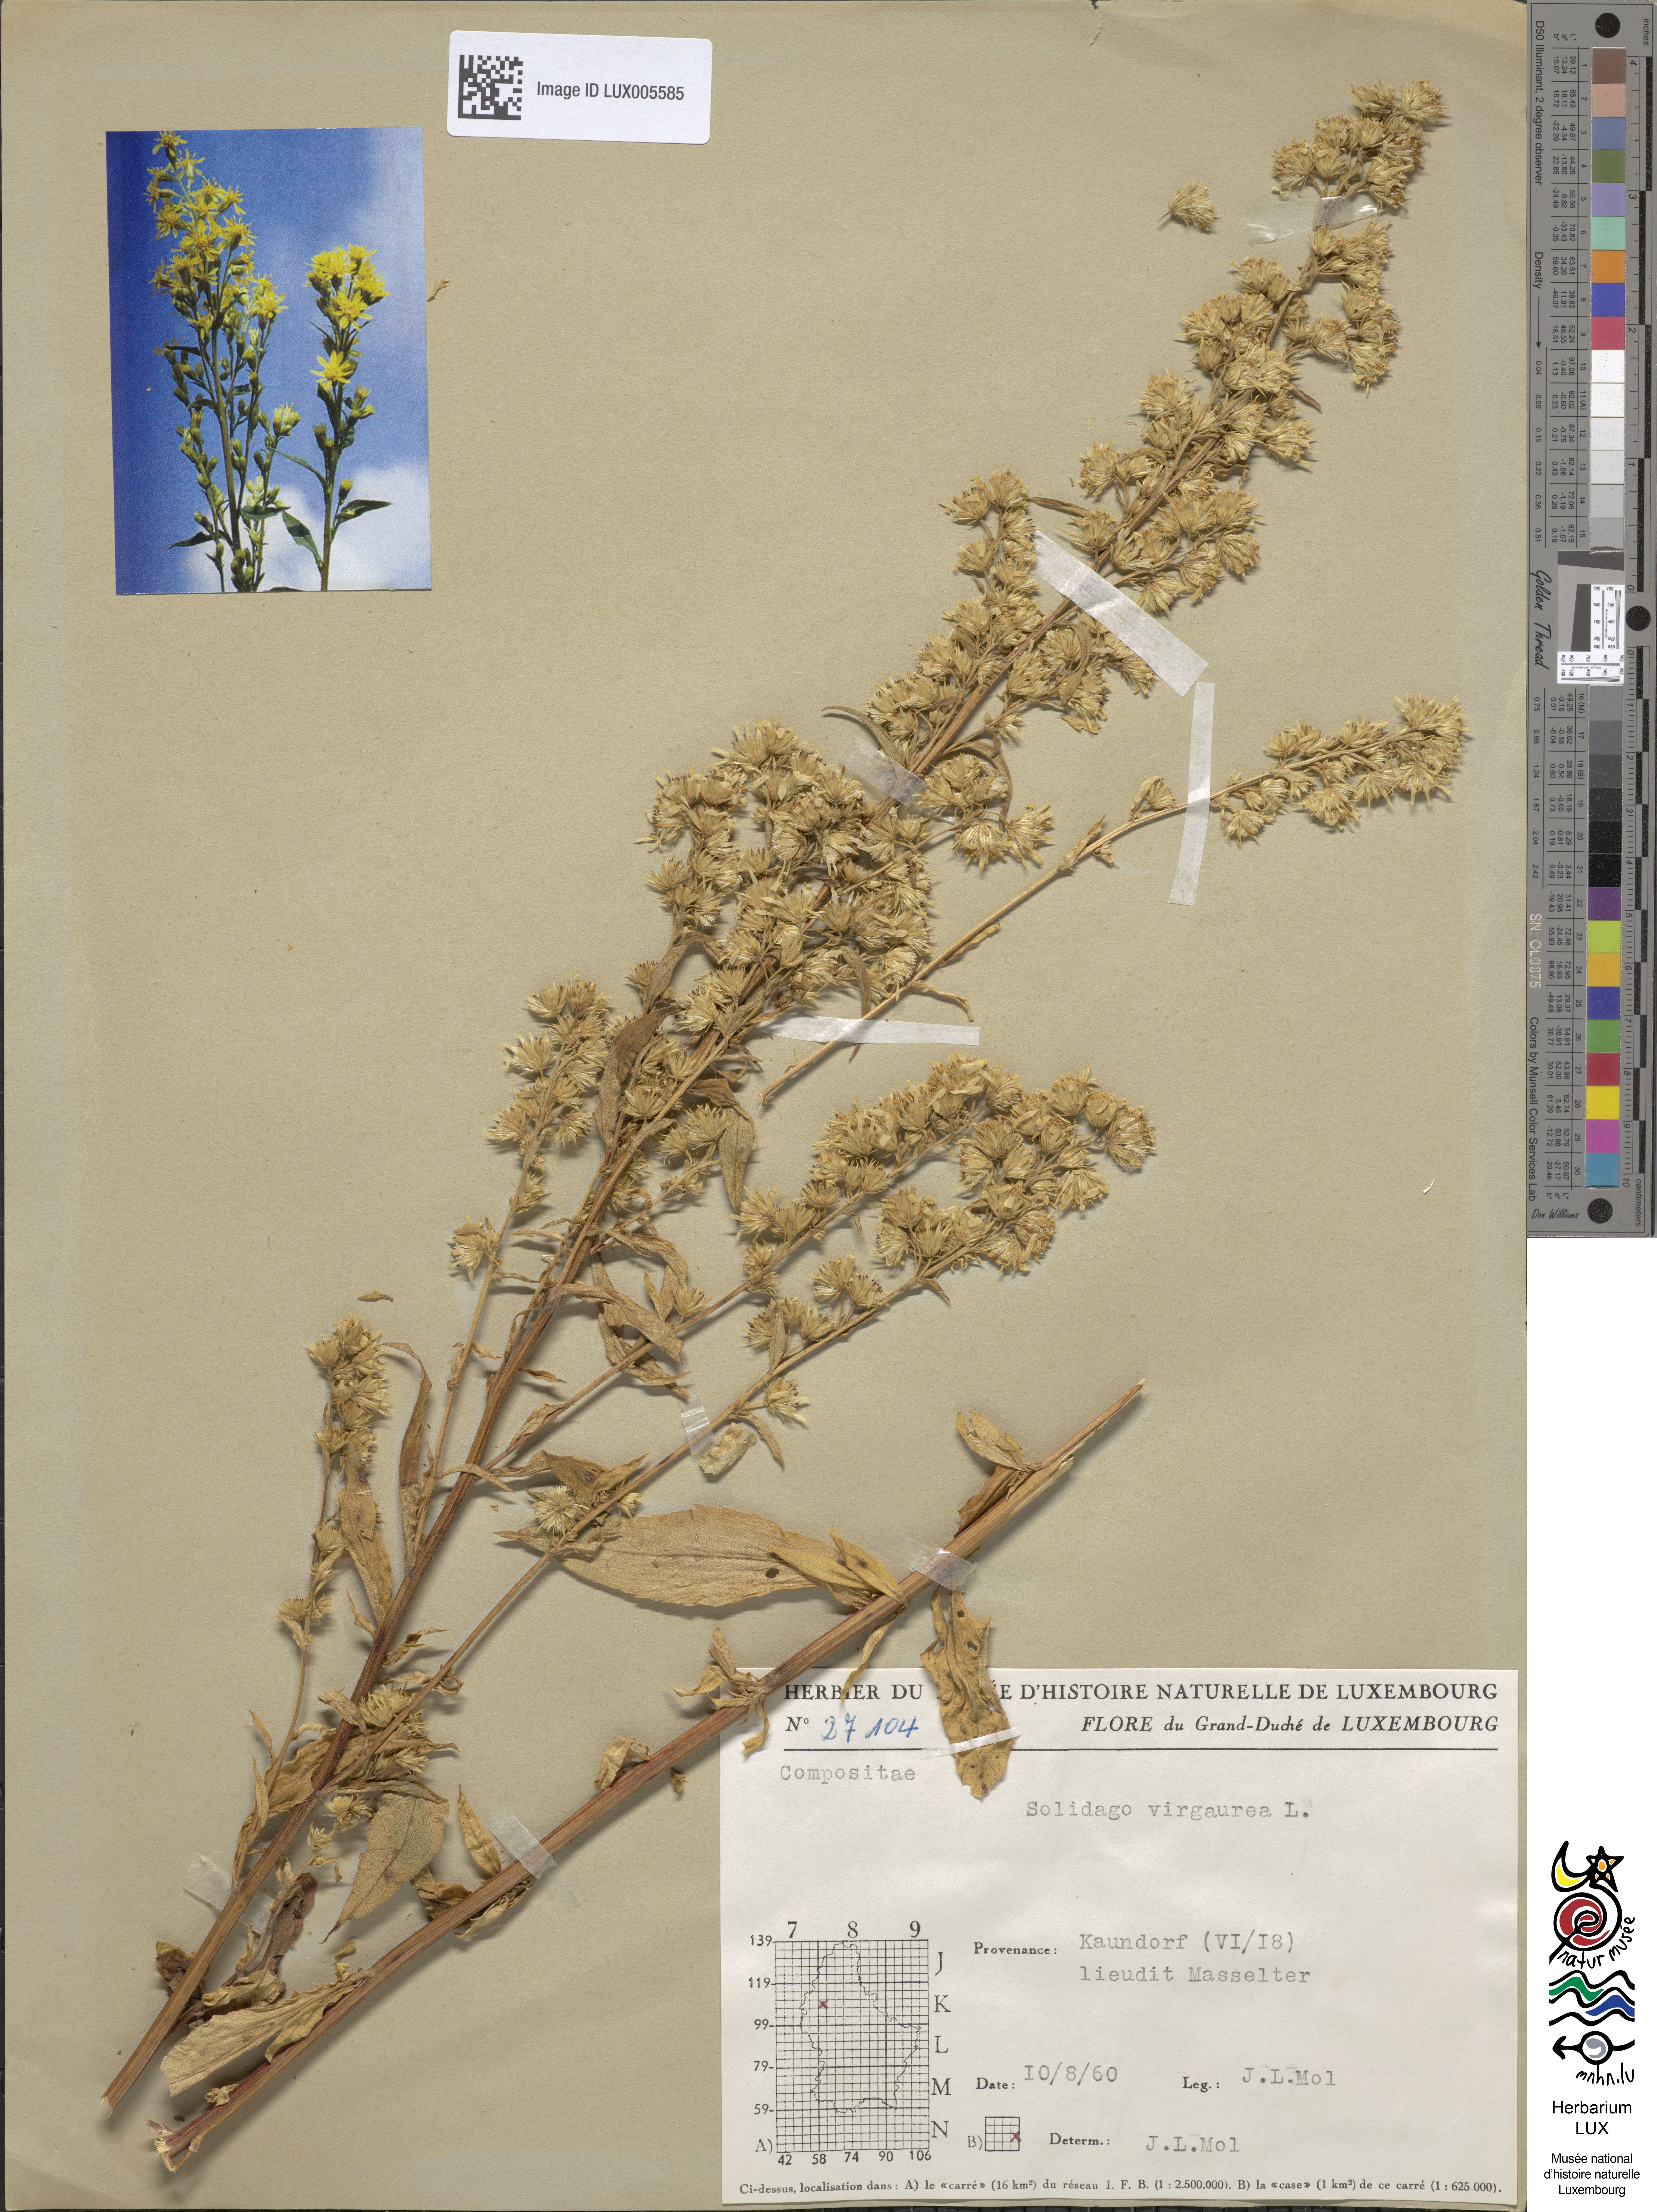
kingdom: Plantae
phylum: Tracheophyta
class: Magnoliopsida
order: Asterales
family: Asteraceae
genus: Solidago
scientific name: Solidago virgaurea
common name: Goldenrod
